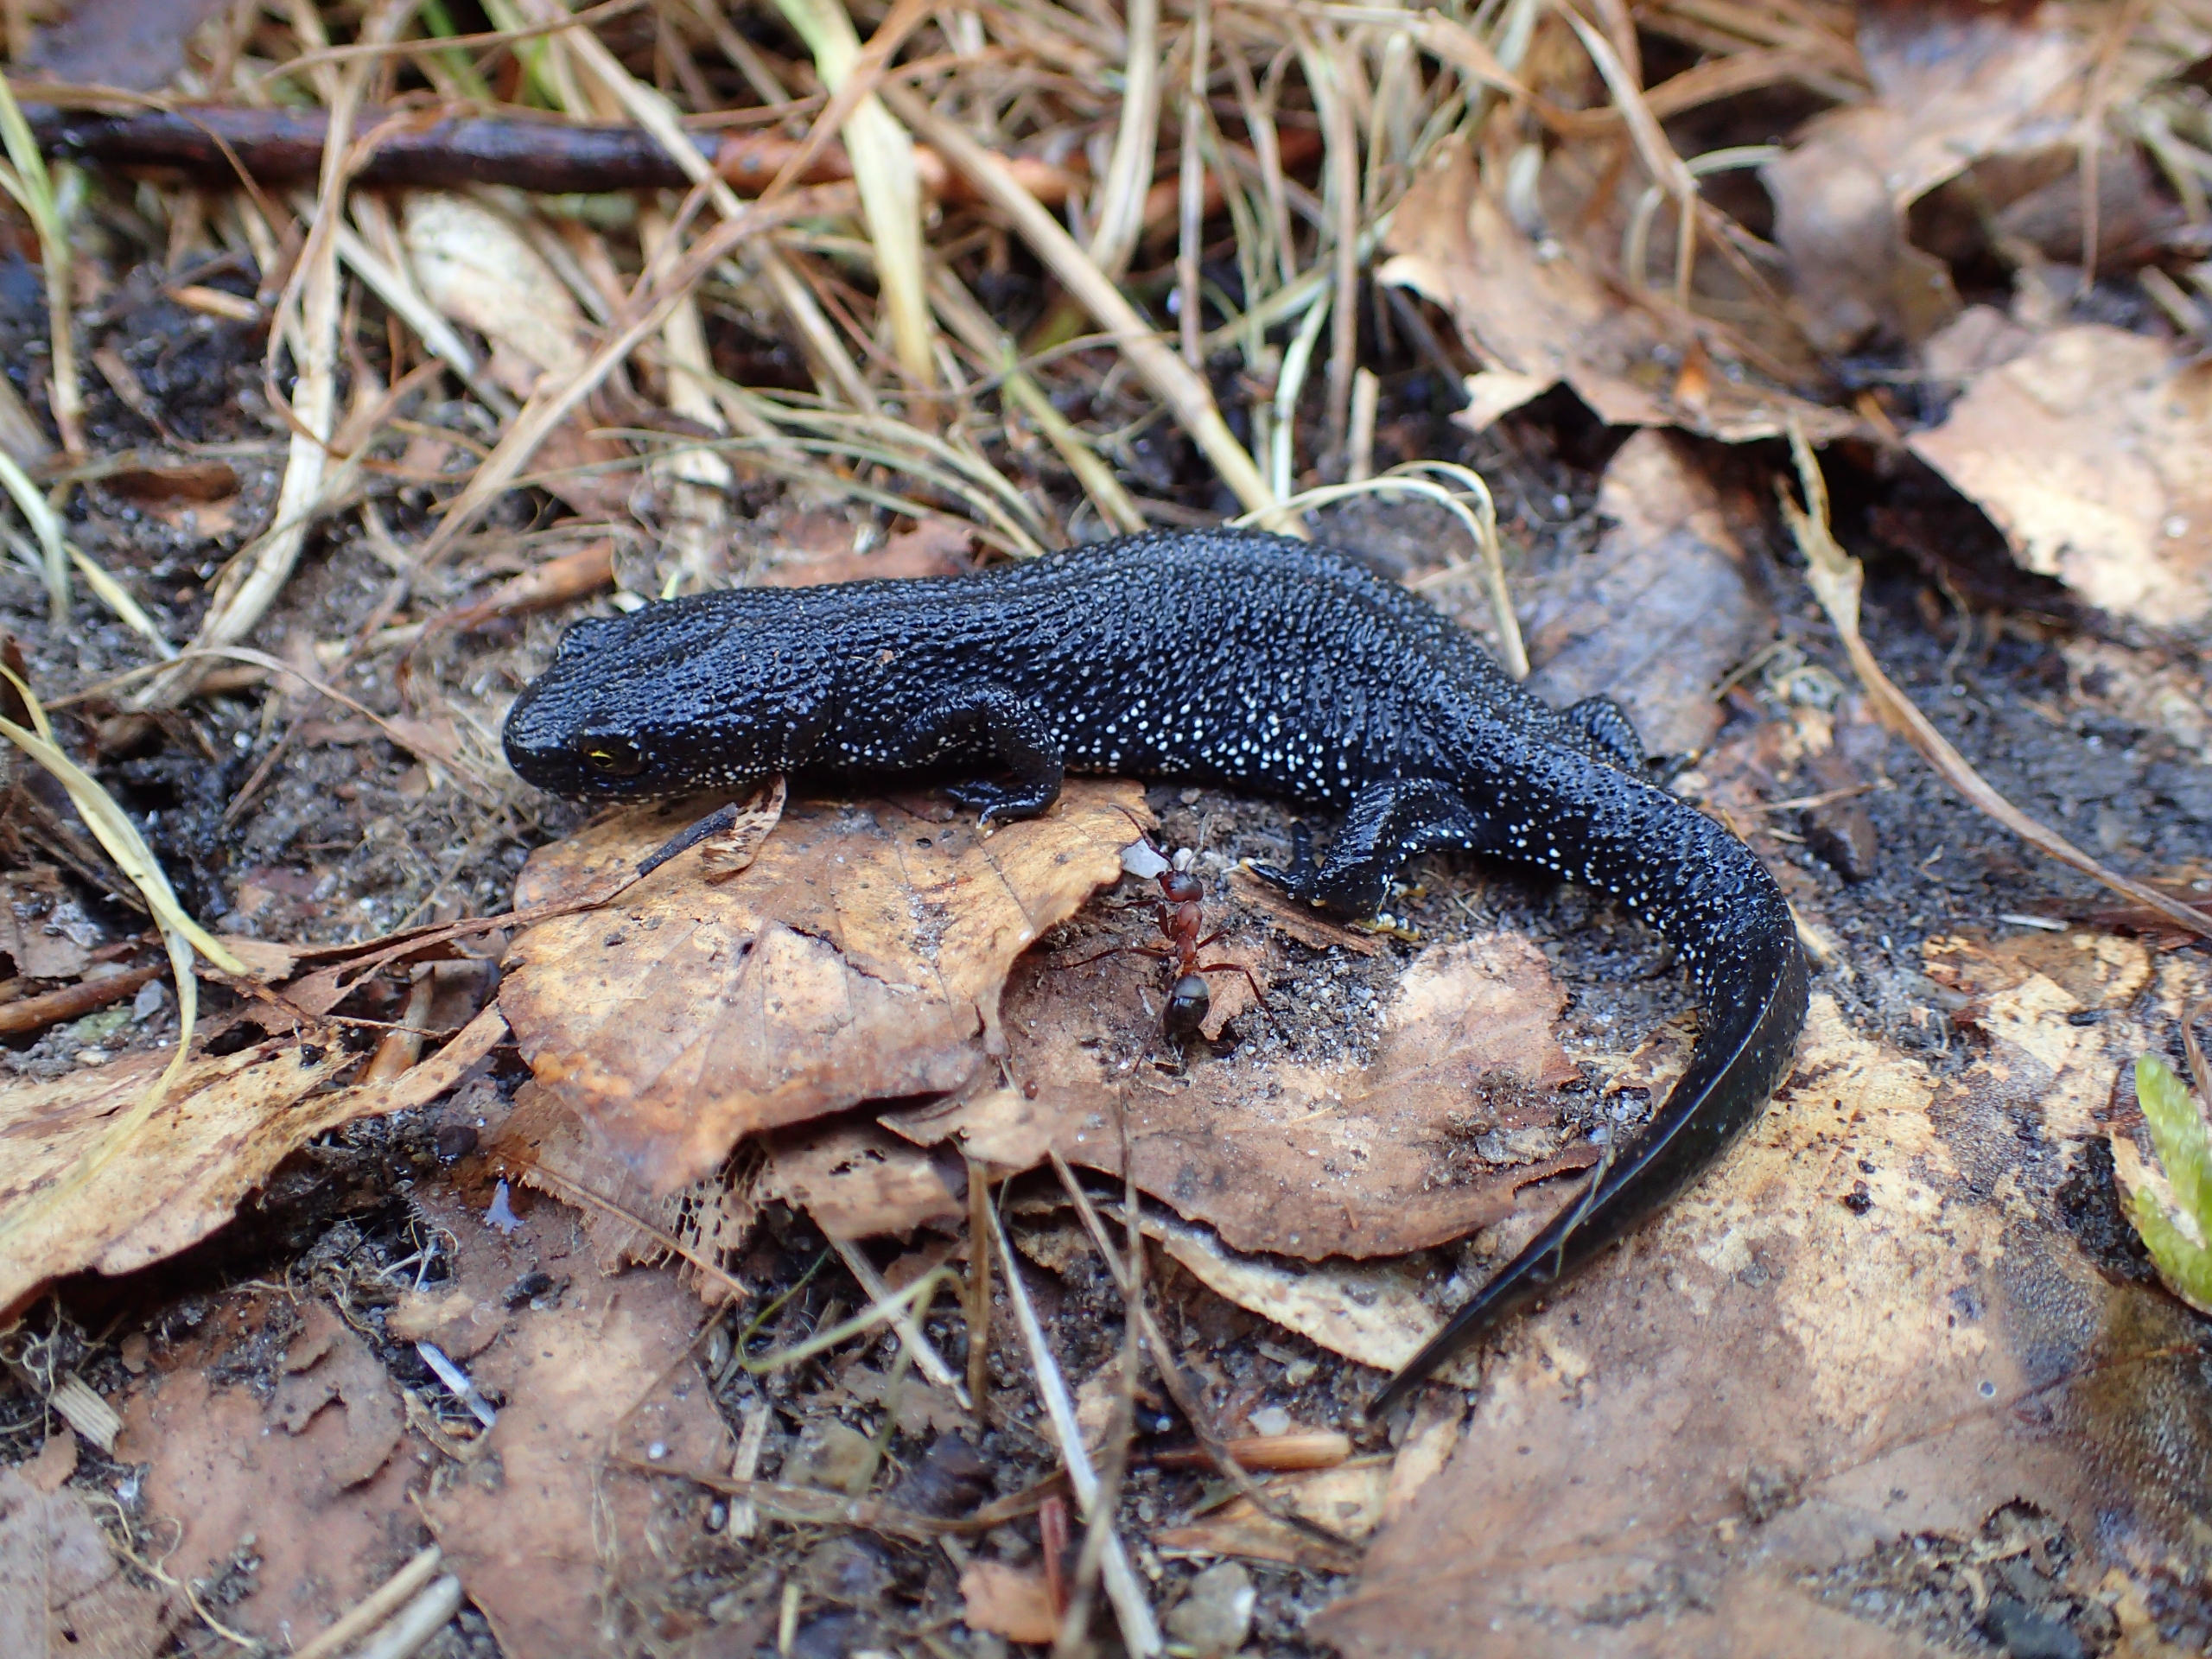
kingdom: Animalia
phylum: Chordata
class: Amphibia
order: Caudata
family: Salamandridae
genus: Triturus
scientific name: Triturus cristatus
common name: Stor vandsalamander
